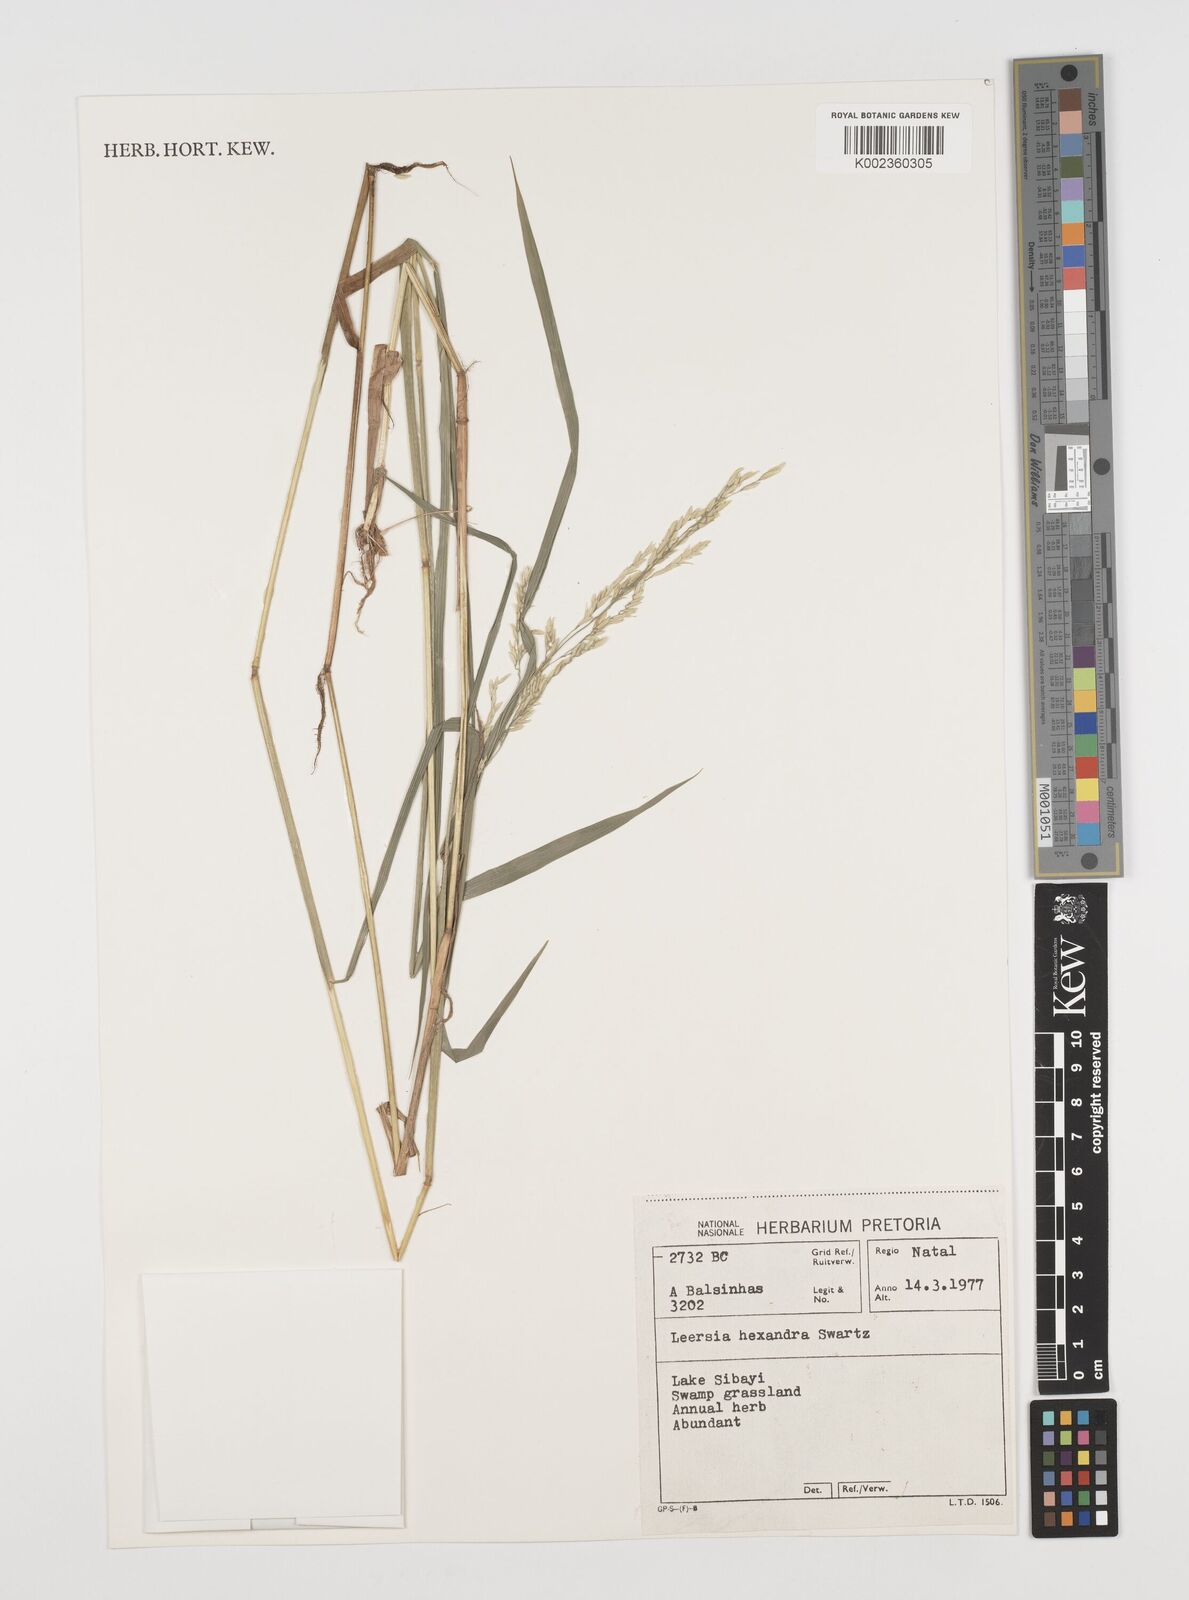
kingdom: Plantae
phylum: Tracheophyta
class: Liliopsida
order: Poales
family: Poaceae
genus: Leersia
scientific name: Leersia hexandra
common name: Southern cut grass
